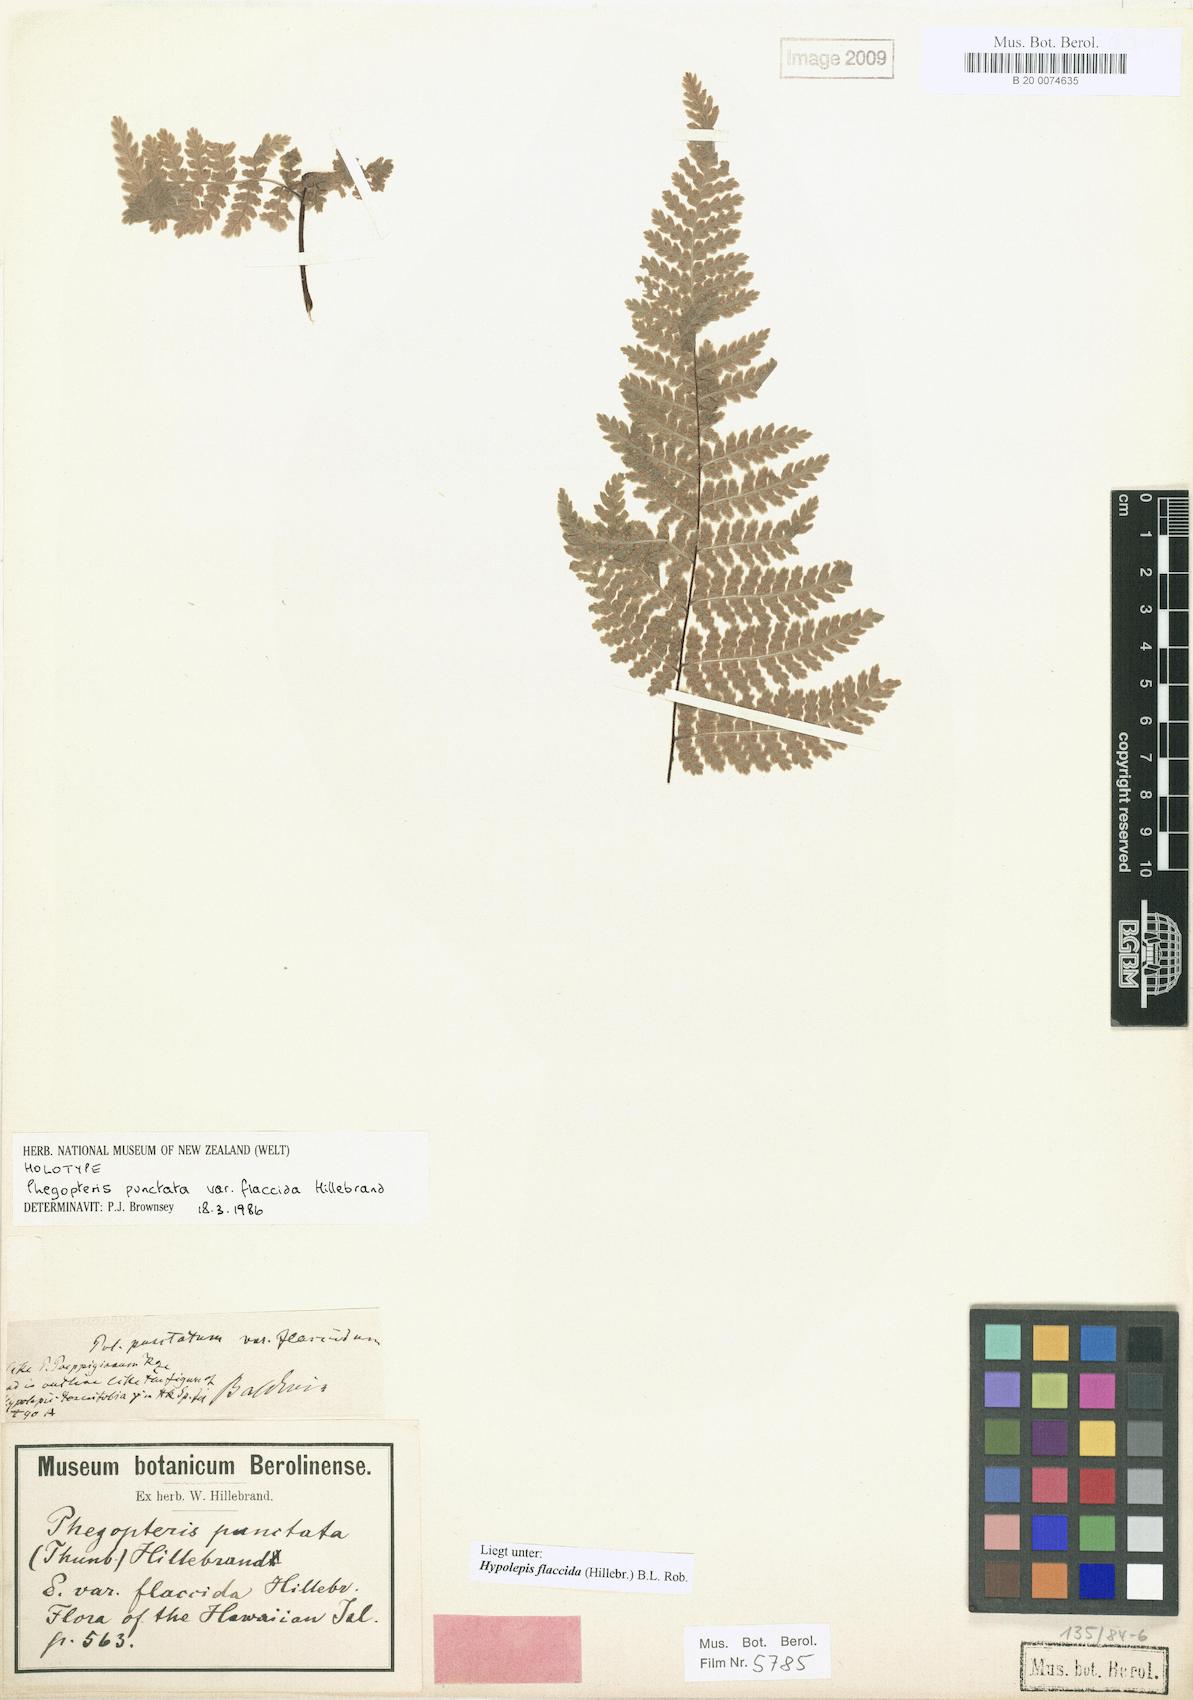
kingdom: Plantae
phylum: Tracheophyta
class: Polypodiopsida
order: Polypodiales
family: Dennstaedtiaceae
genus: Hypolepis
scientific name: Hypolepis hawaiiensis
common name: Dotted beadfern
